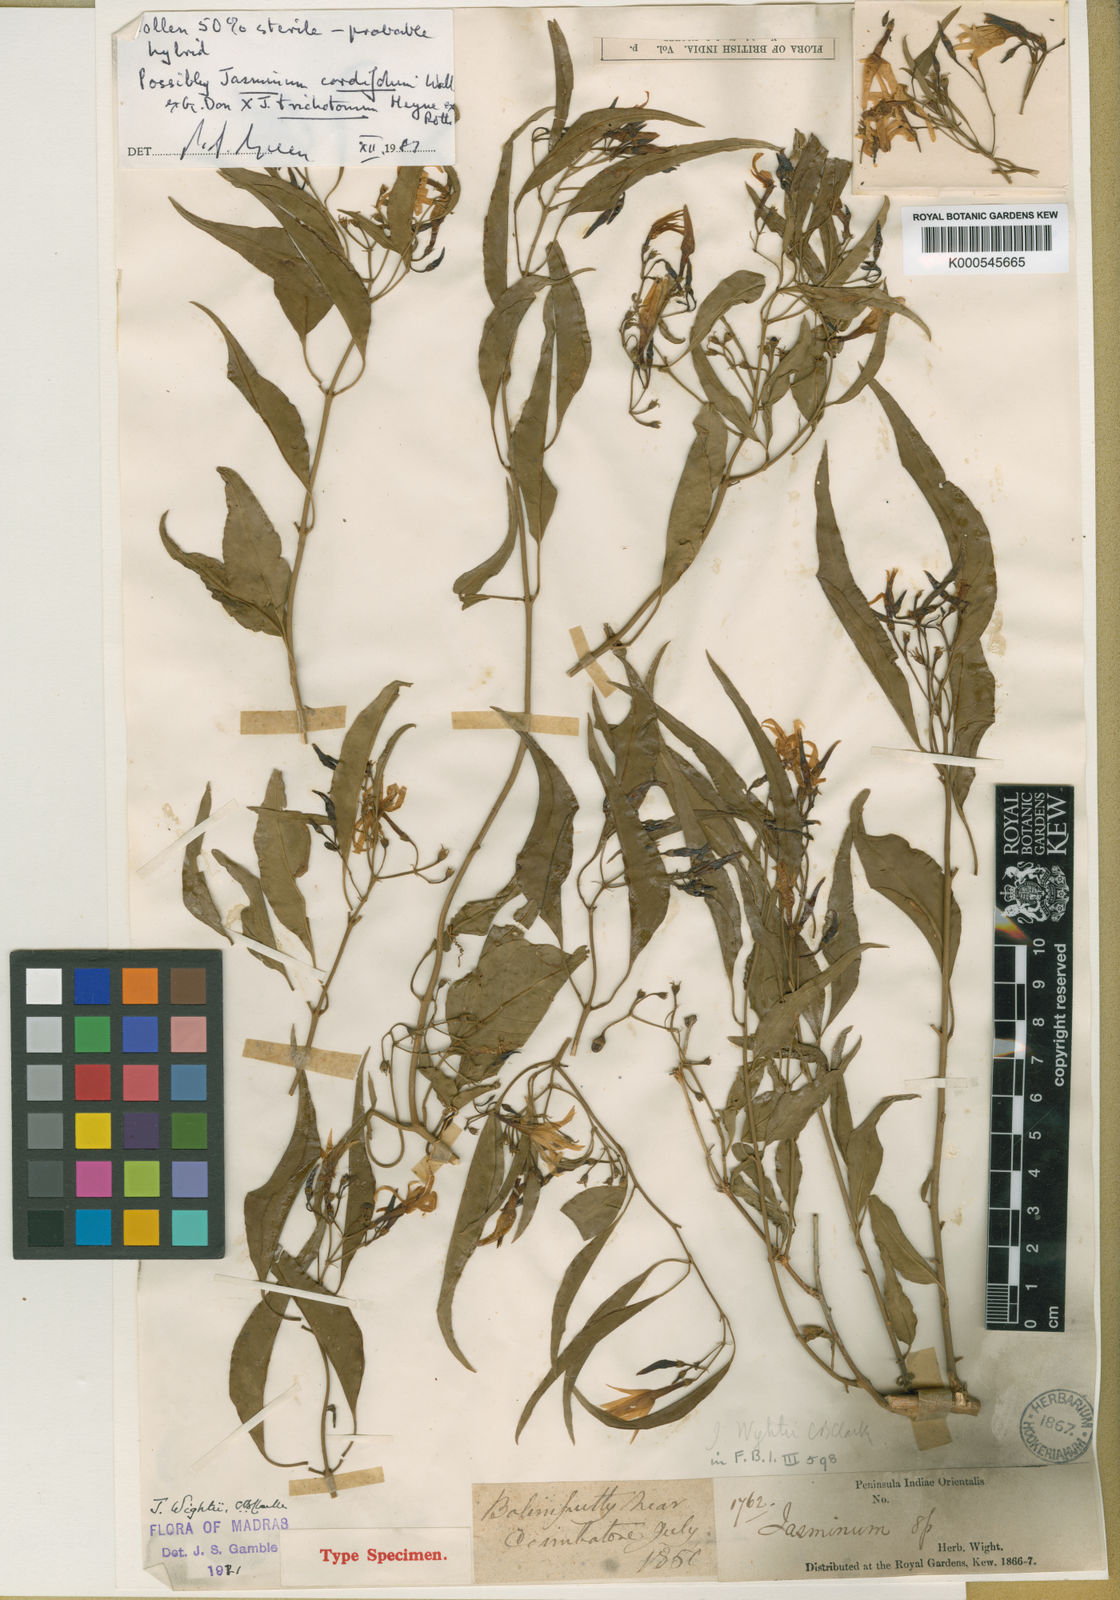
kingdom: Plantae
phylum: Tracheophyta
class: Magnoliopsida
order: Lamiales
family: Oleaceae
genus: Jasminum
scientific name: Jasminum trichotomum
